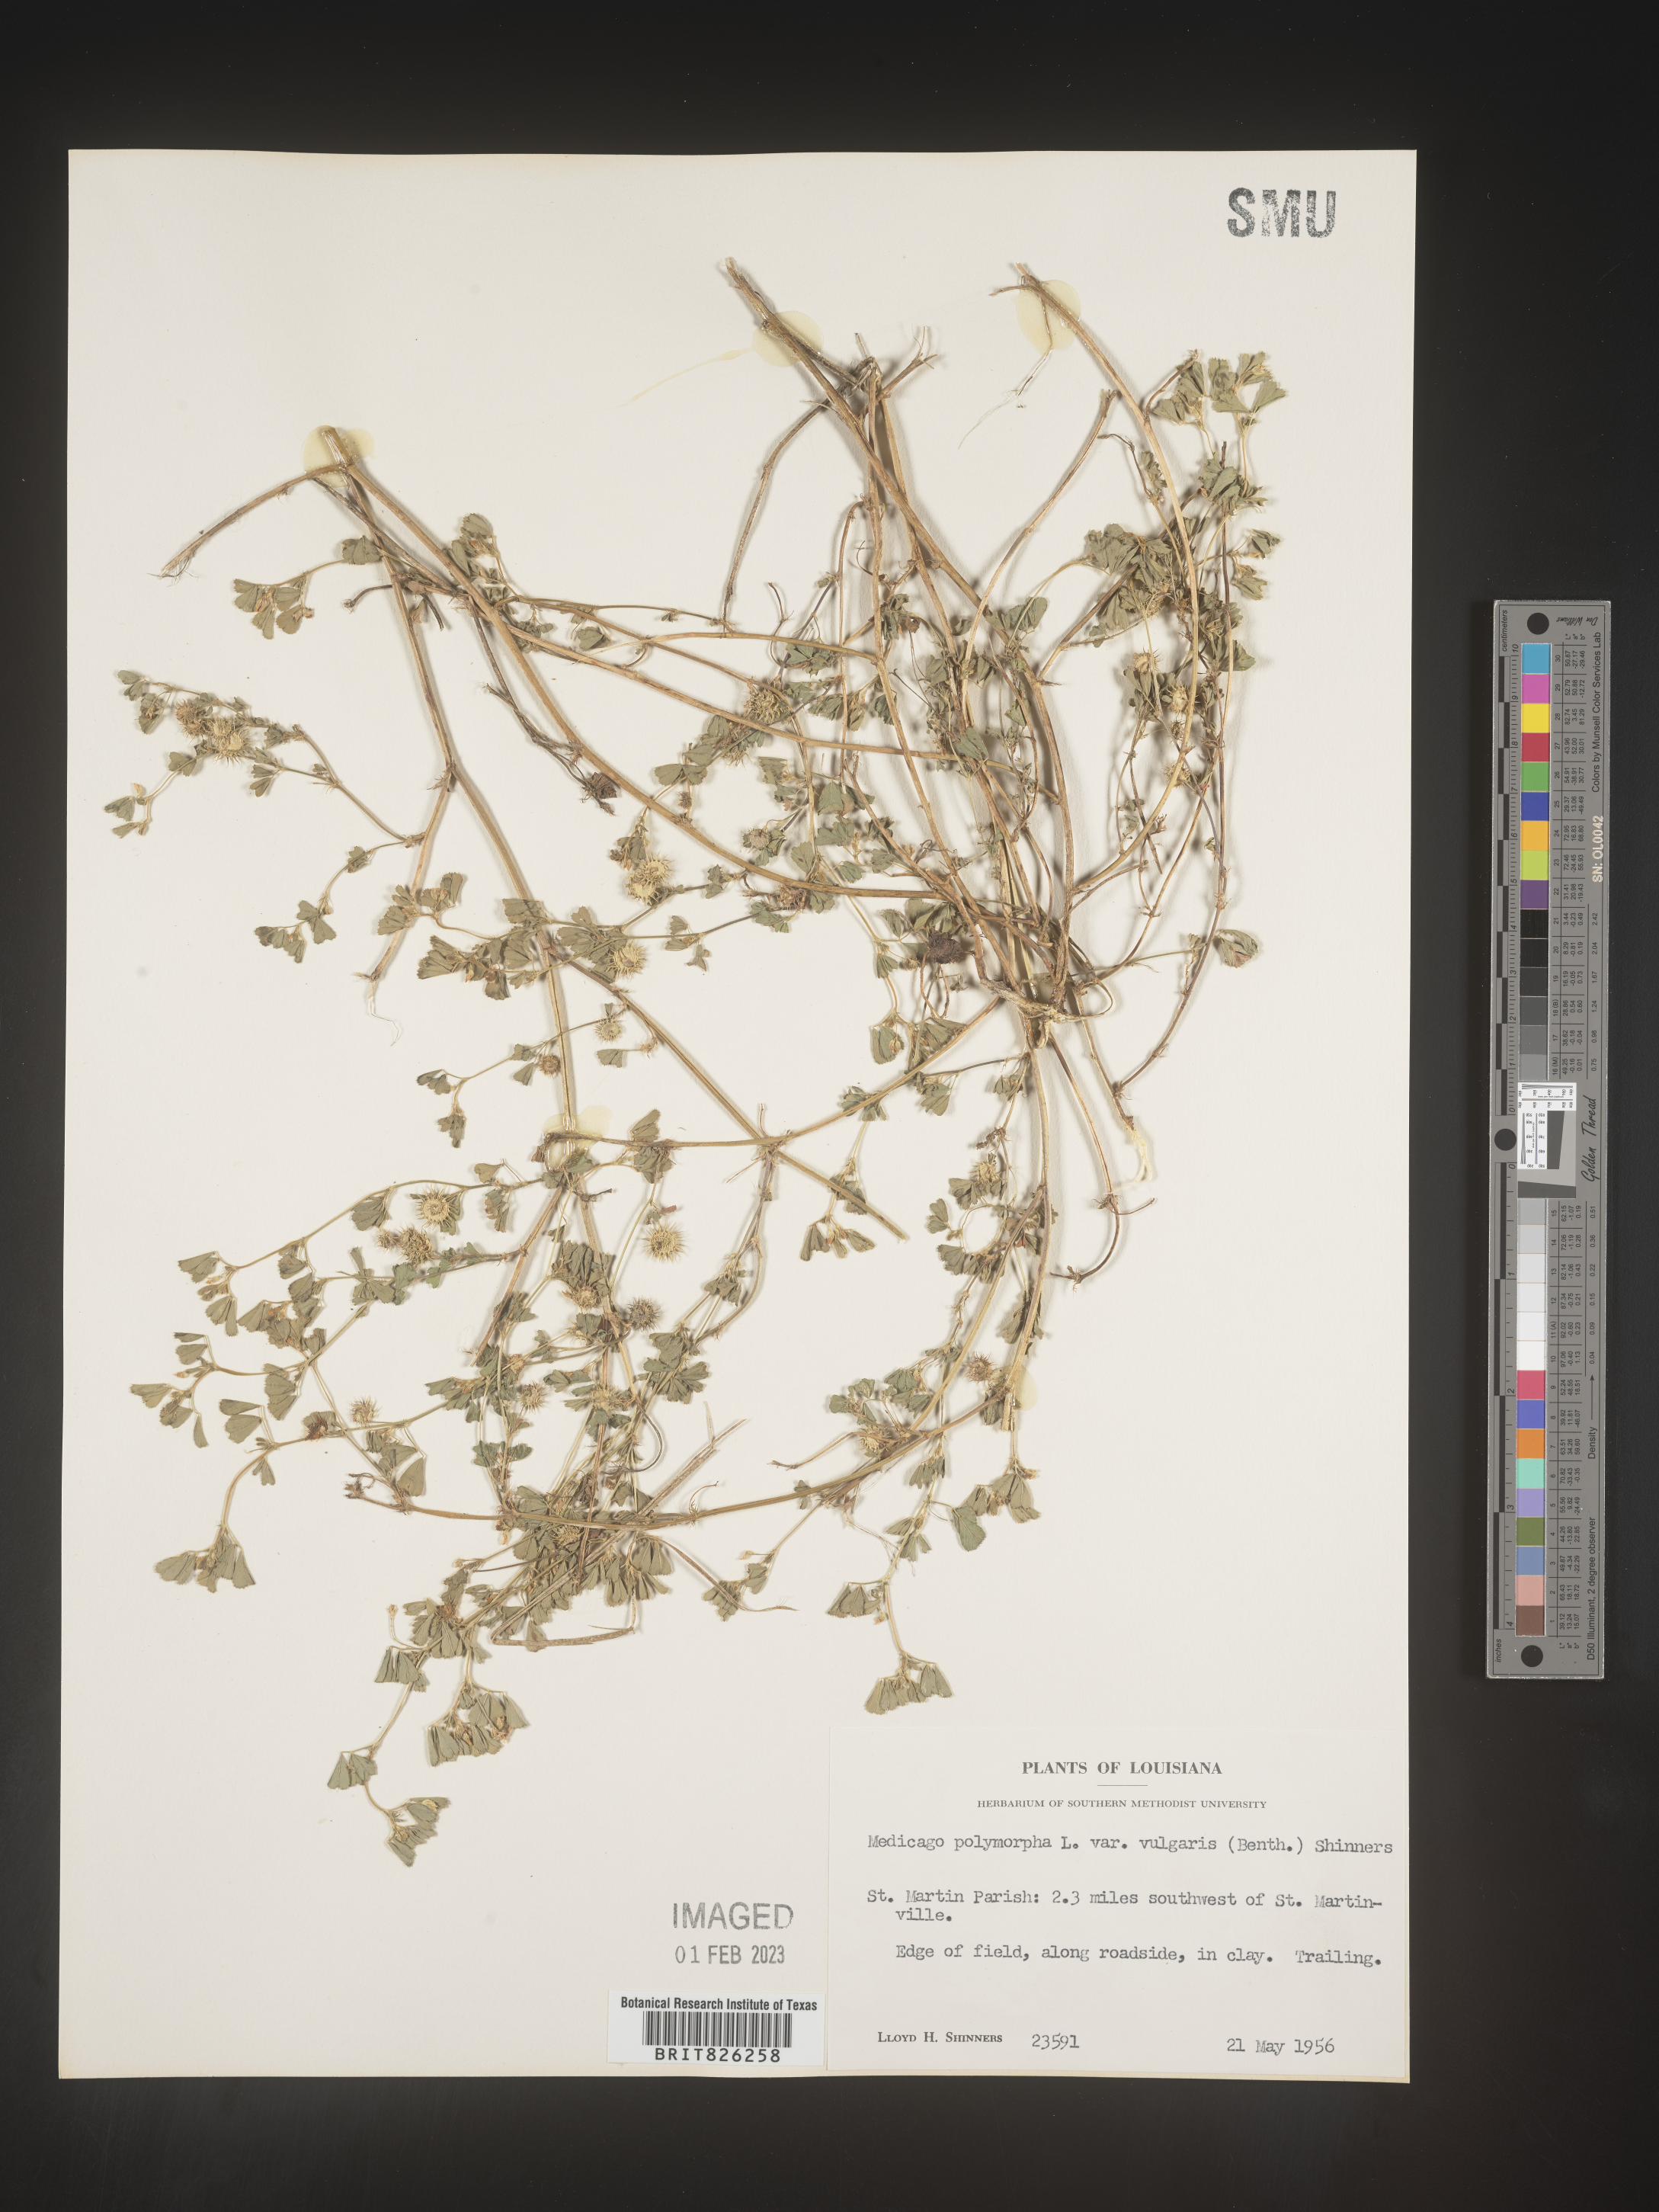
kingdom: Plantae
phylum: Tracheophyta
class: Magnoliopsida
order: Fabales
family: Fabaceae
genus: Medicago
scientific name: Medicago polymorpha
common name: Burclover
